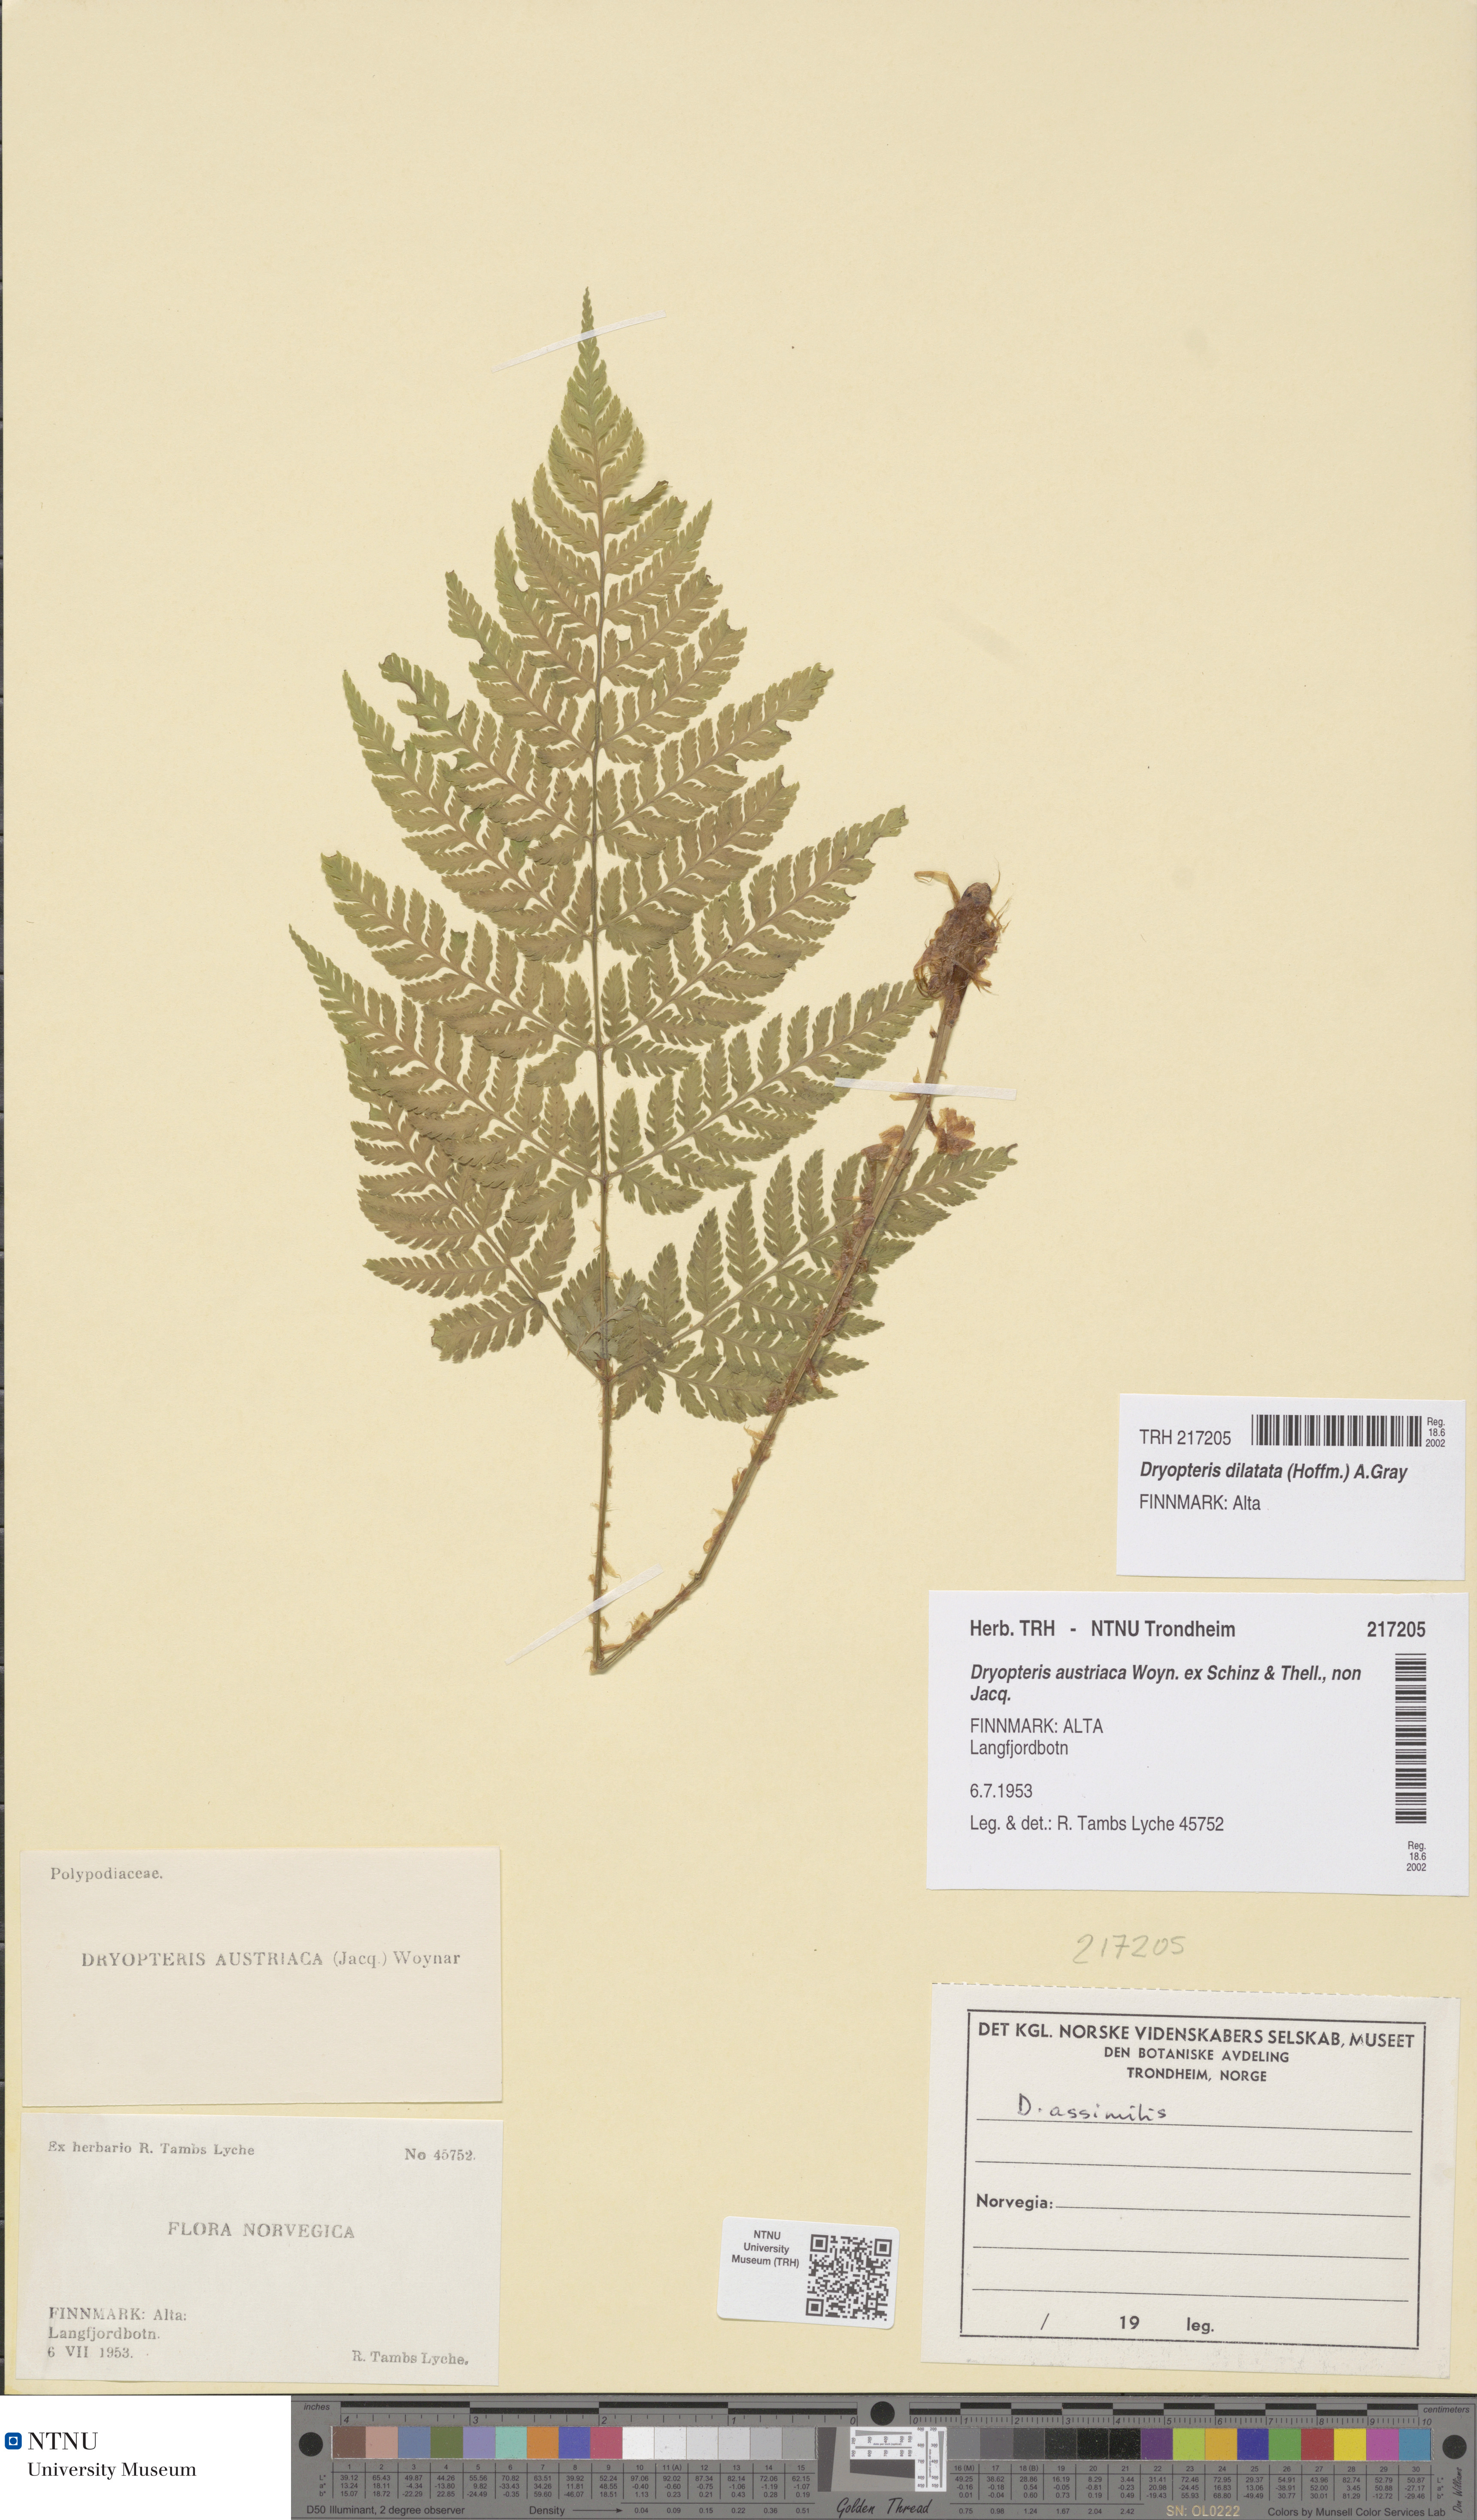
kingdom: Plantae
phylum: Tracheophyta
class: Polypodiopsida
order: Polypodiales
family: Dryopteridaceae
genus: Dryopteris
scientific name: Dryopteris dilatata
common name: Broad buckler-fern
